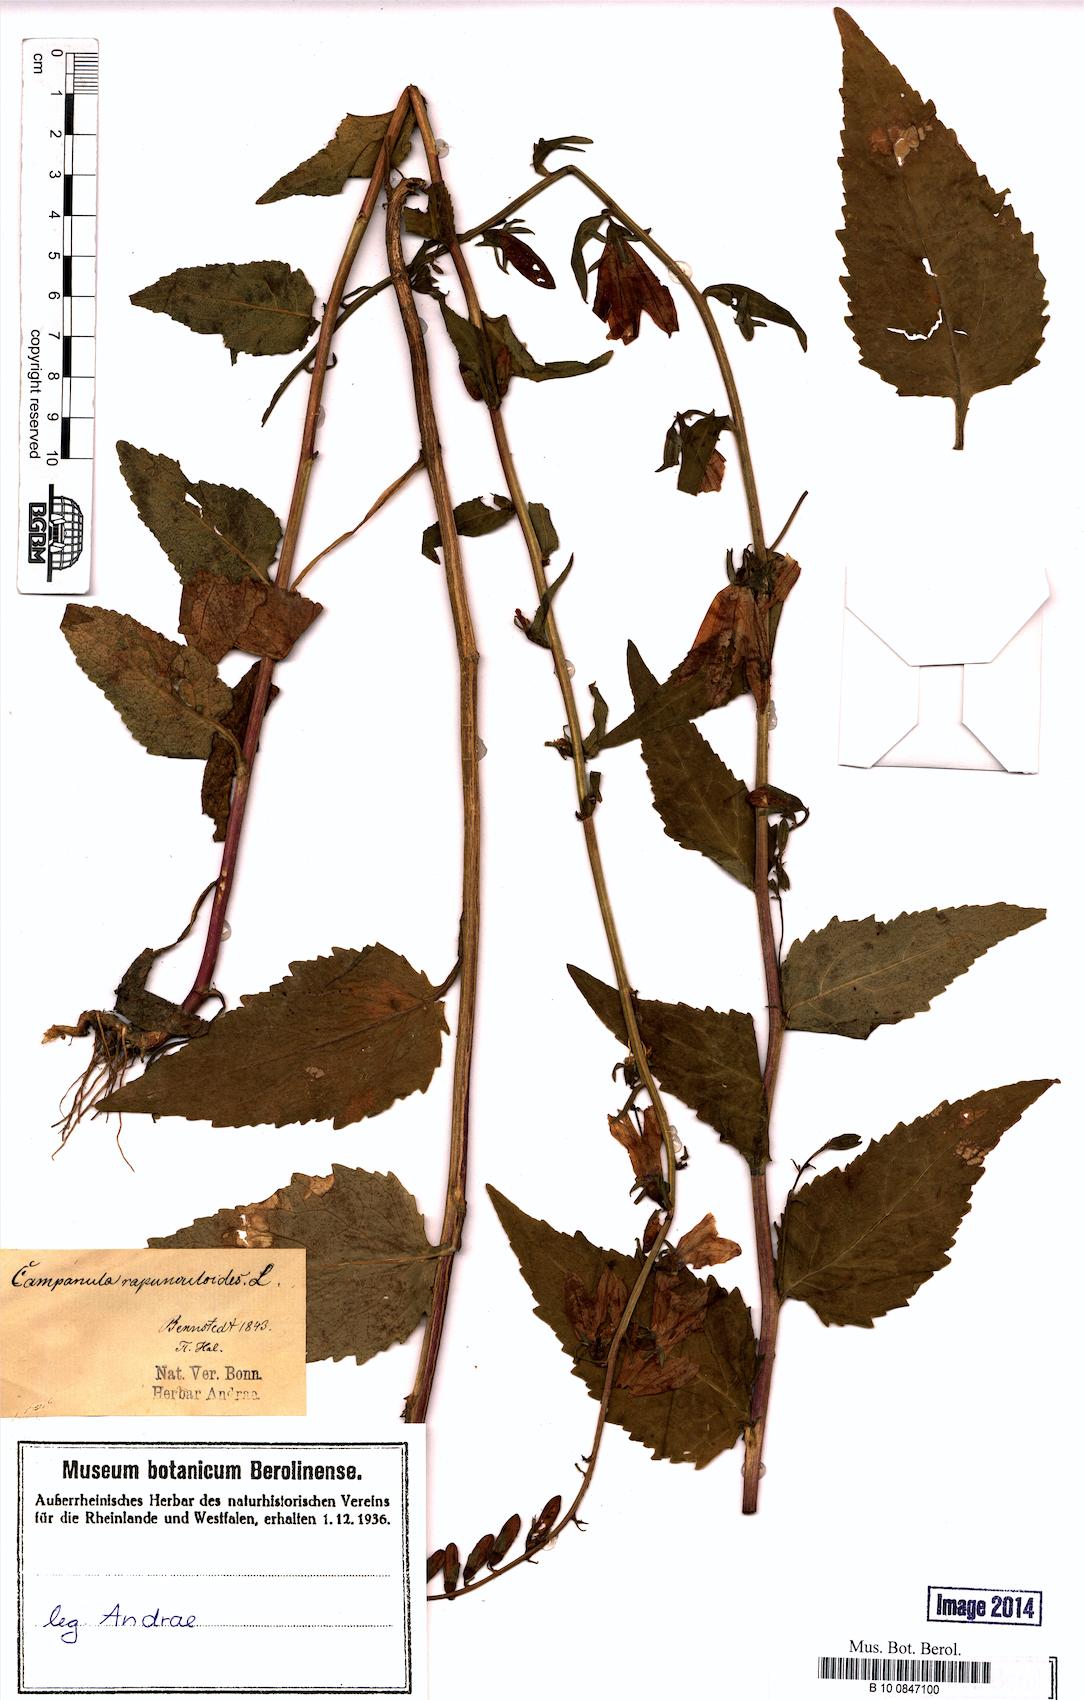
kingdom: Plantae
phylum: Tracheophyta
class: Magnoliopsida
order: Asterales
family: Campanulaceae
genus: Campanula
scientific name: Campanula rapunculoides
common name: Creeping bellflower
